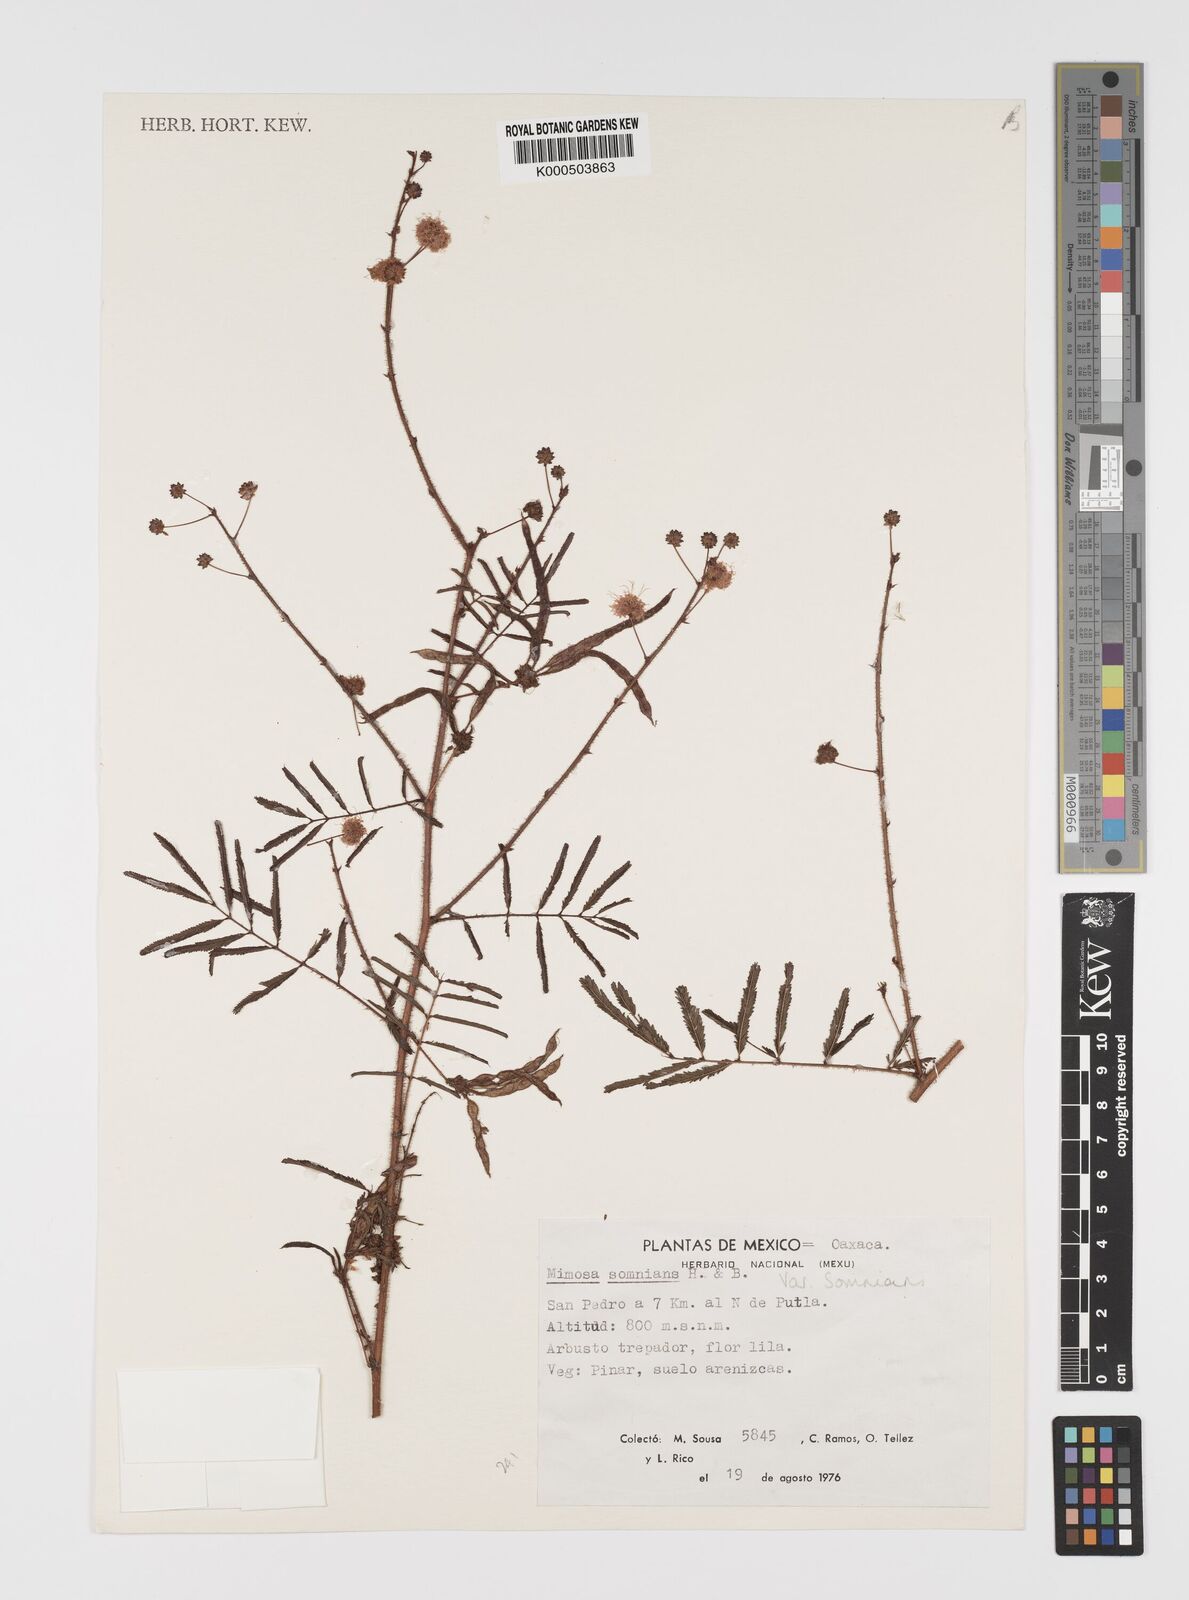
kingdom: Plantae
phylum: Tracheophyta
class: Magnoliopsida
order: Fabales
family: Fabaceae
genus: Mimosa
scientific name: Mimosa somnians
